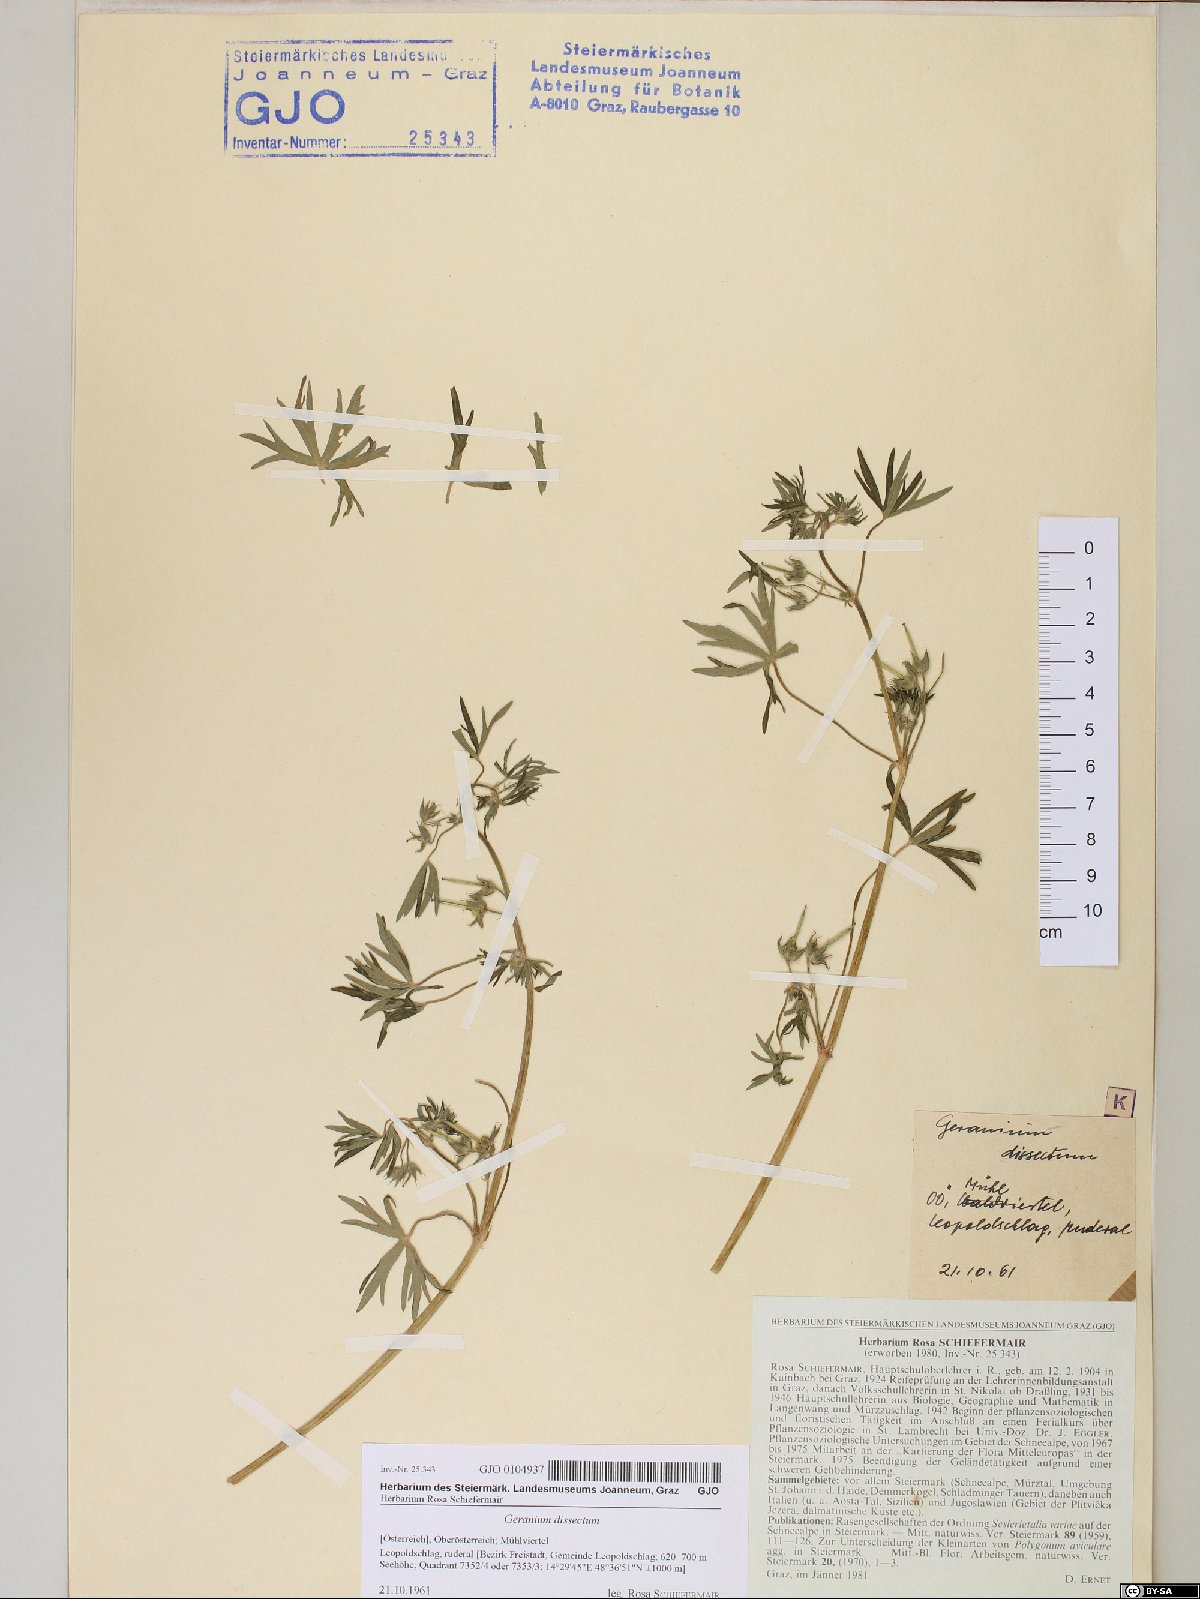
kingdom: Plantae
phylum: Tracheophyta
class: Magnoliopsida
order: Geraniales
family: Geraniaceae
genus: Geranium
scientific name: Geranium dissectum
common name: Cut-leaved crane's-bill
